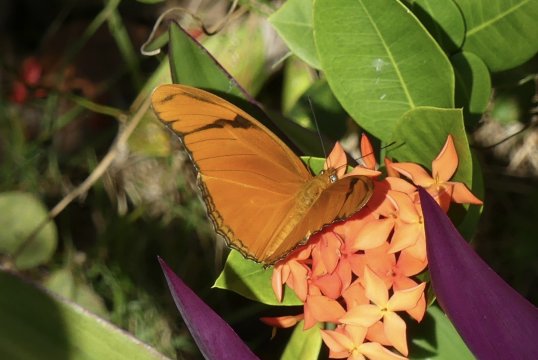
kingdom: Animalia
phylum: Arthropoda
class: Insecta
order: Lepidoptera
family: Nymphalidae
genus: Dryas
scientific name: Dryas iulia
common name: Julia
